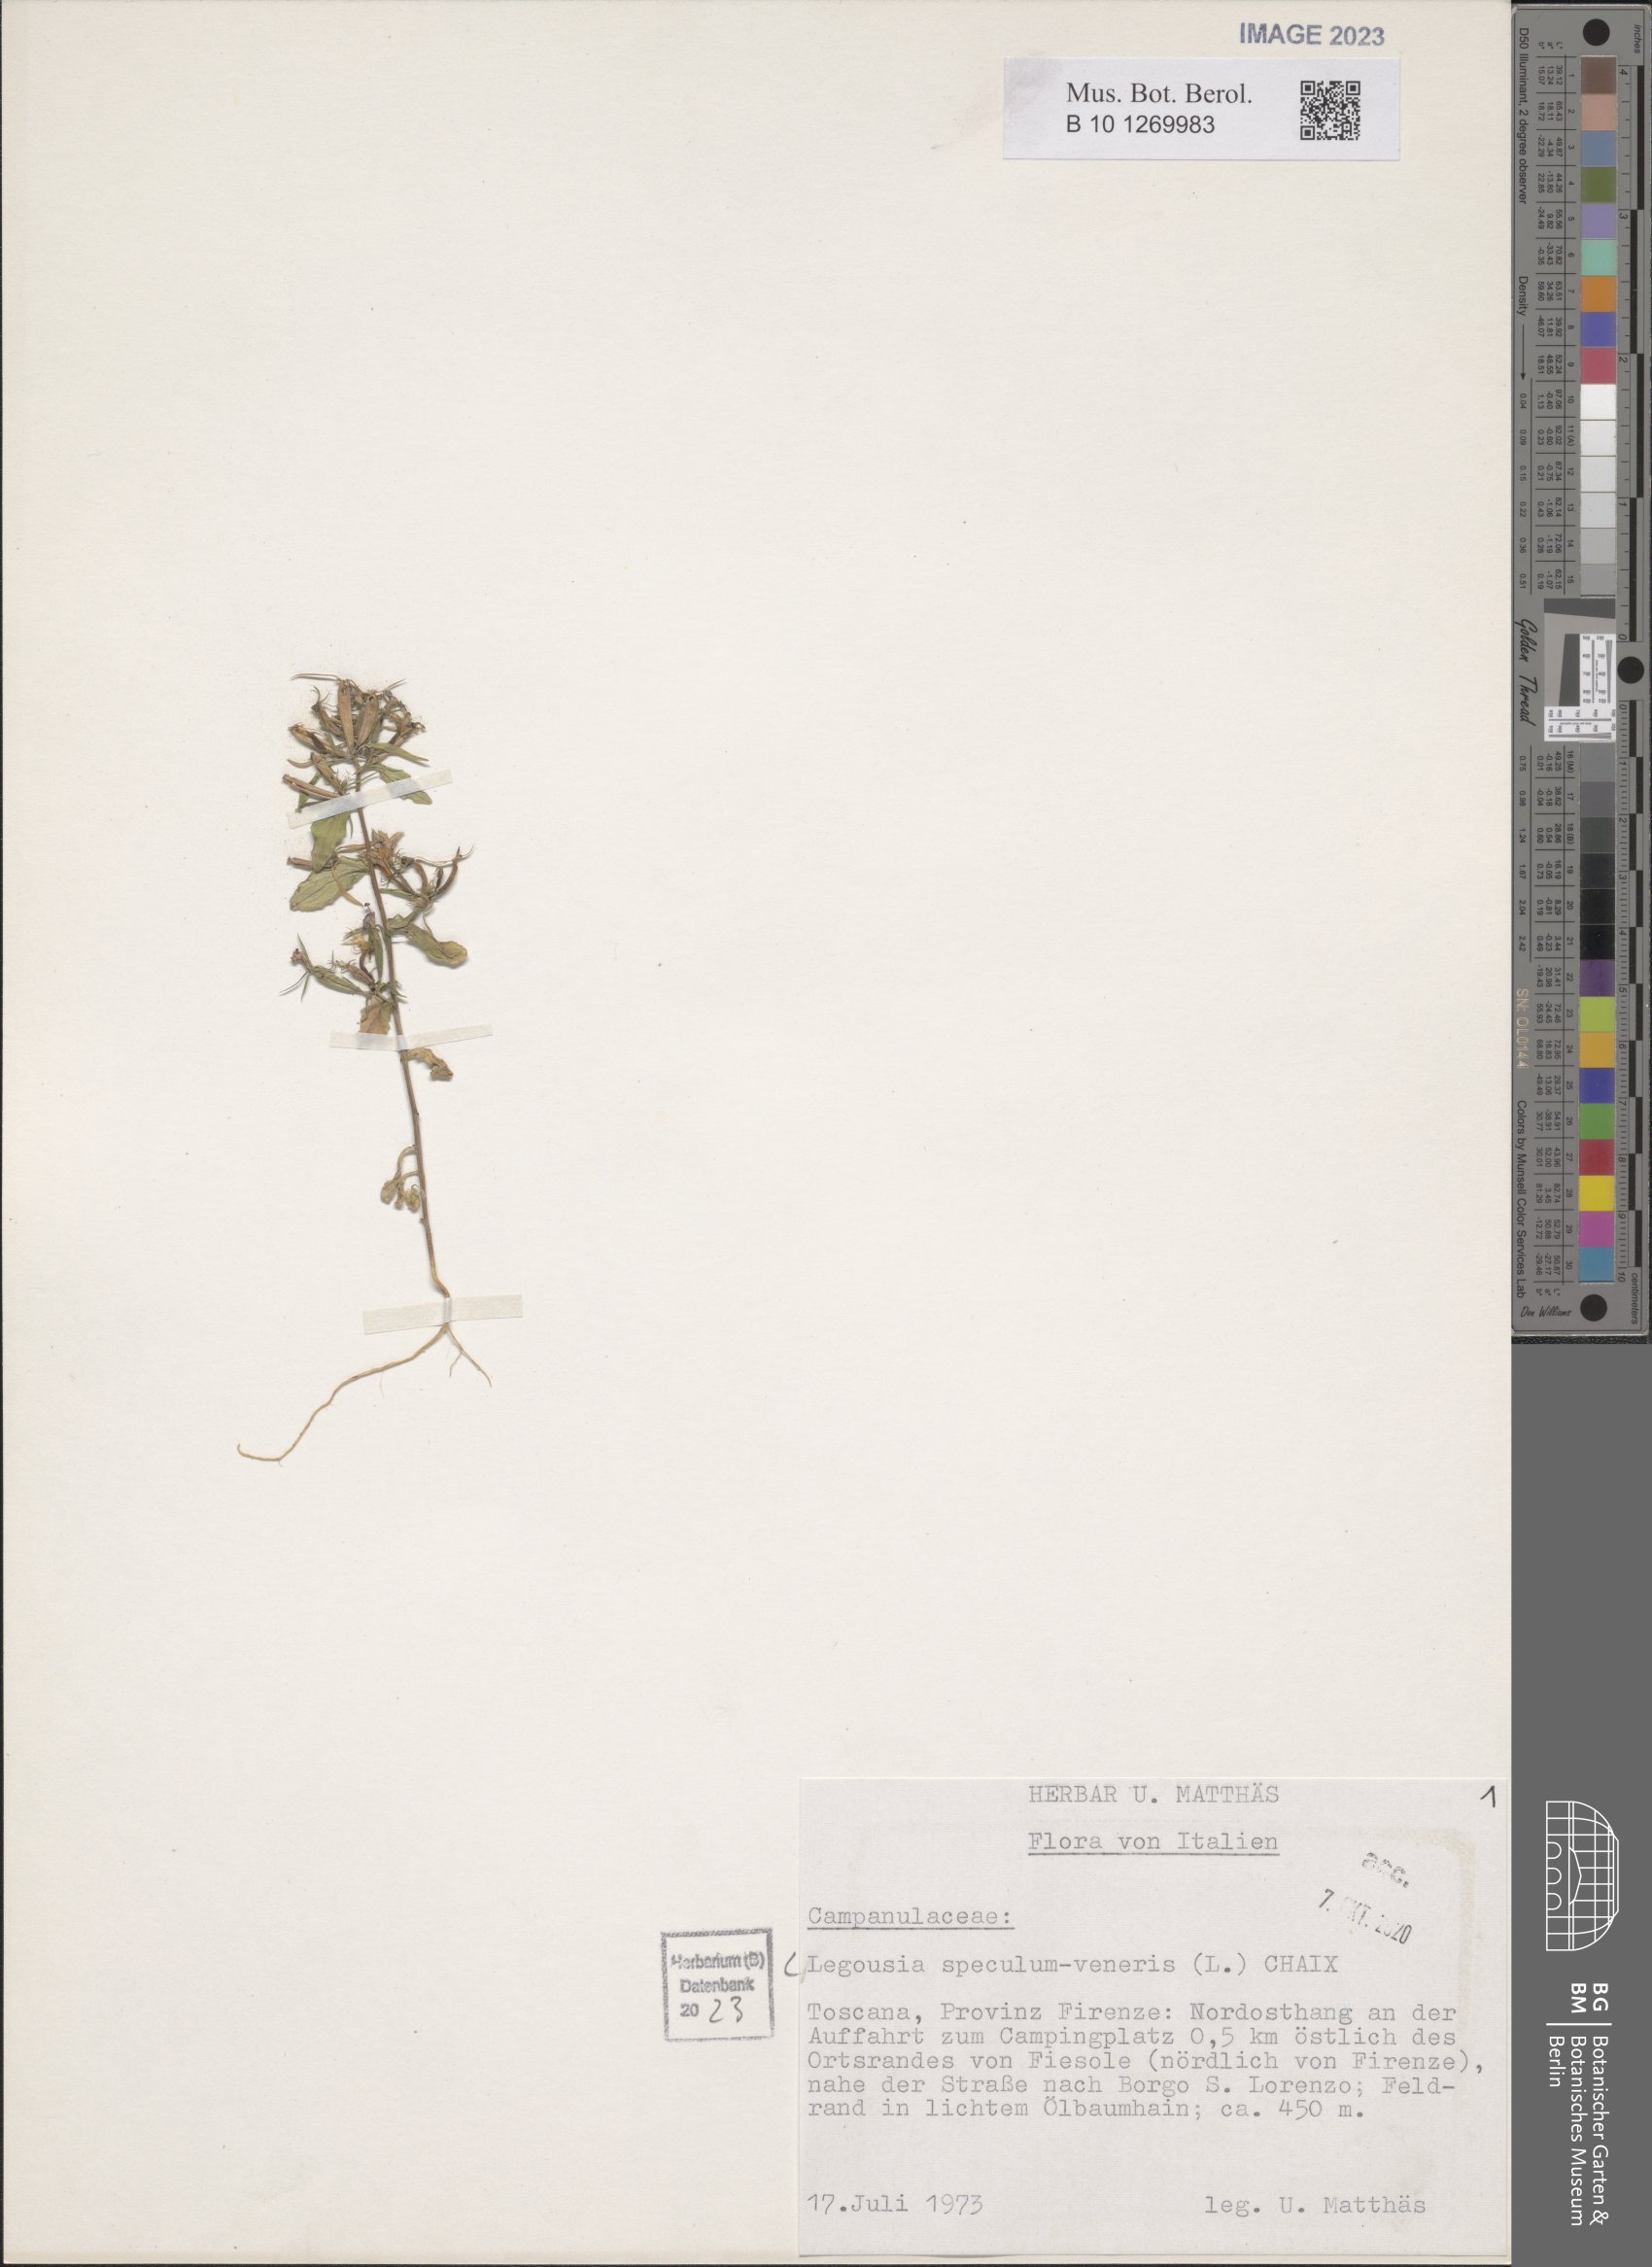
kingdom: Plantae
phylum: Tracheophyta
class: Magnoliopsida
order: Asterales
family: Campanulaceae
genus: Legousia
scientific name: Legousia speculum-veneris
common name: Large venus's-looking-glass
